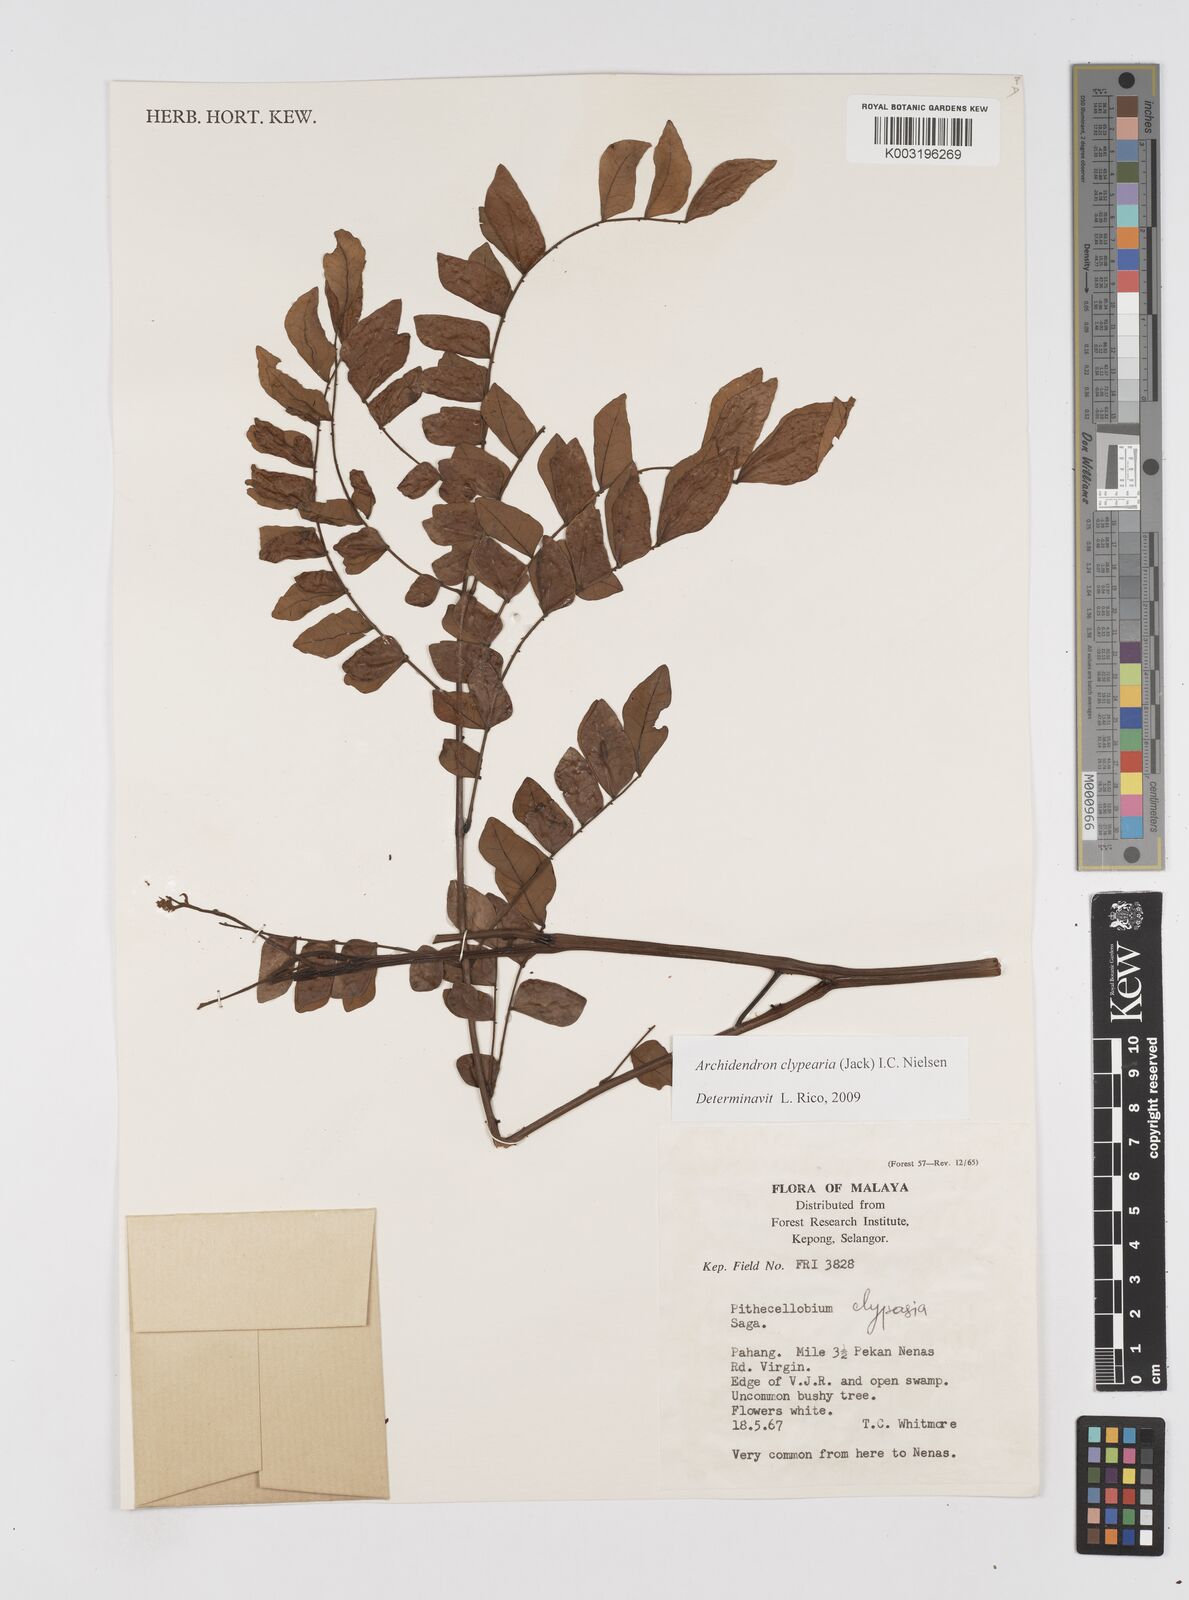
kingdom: Plantae
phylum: Tracheophyta
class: Magnoliopsida
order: Fabales
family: Fabaceae
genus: Archidendron
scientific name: Archidendron clypearia
